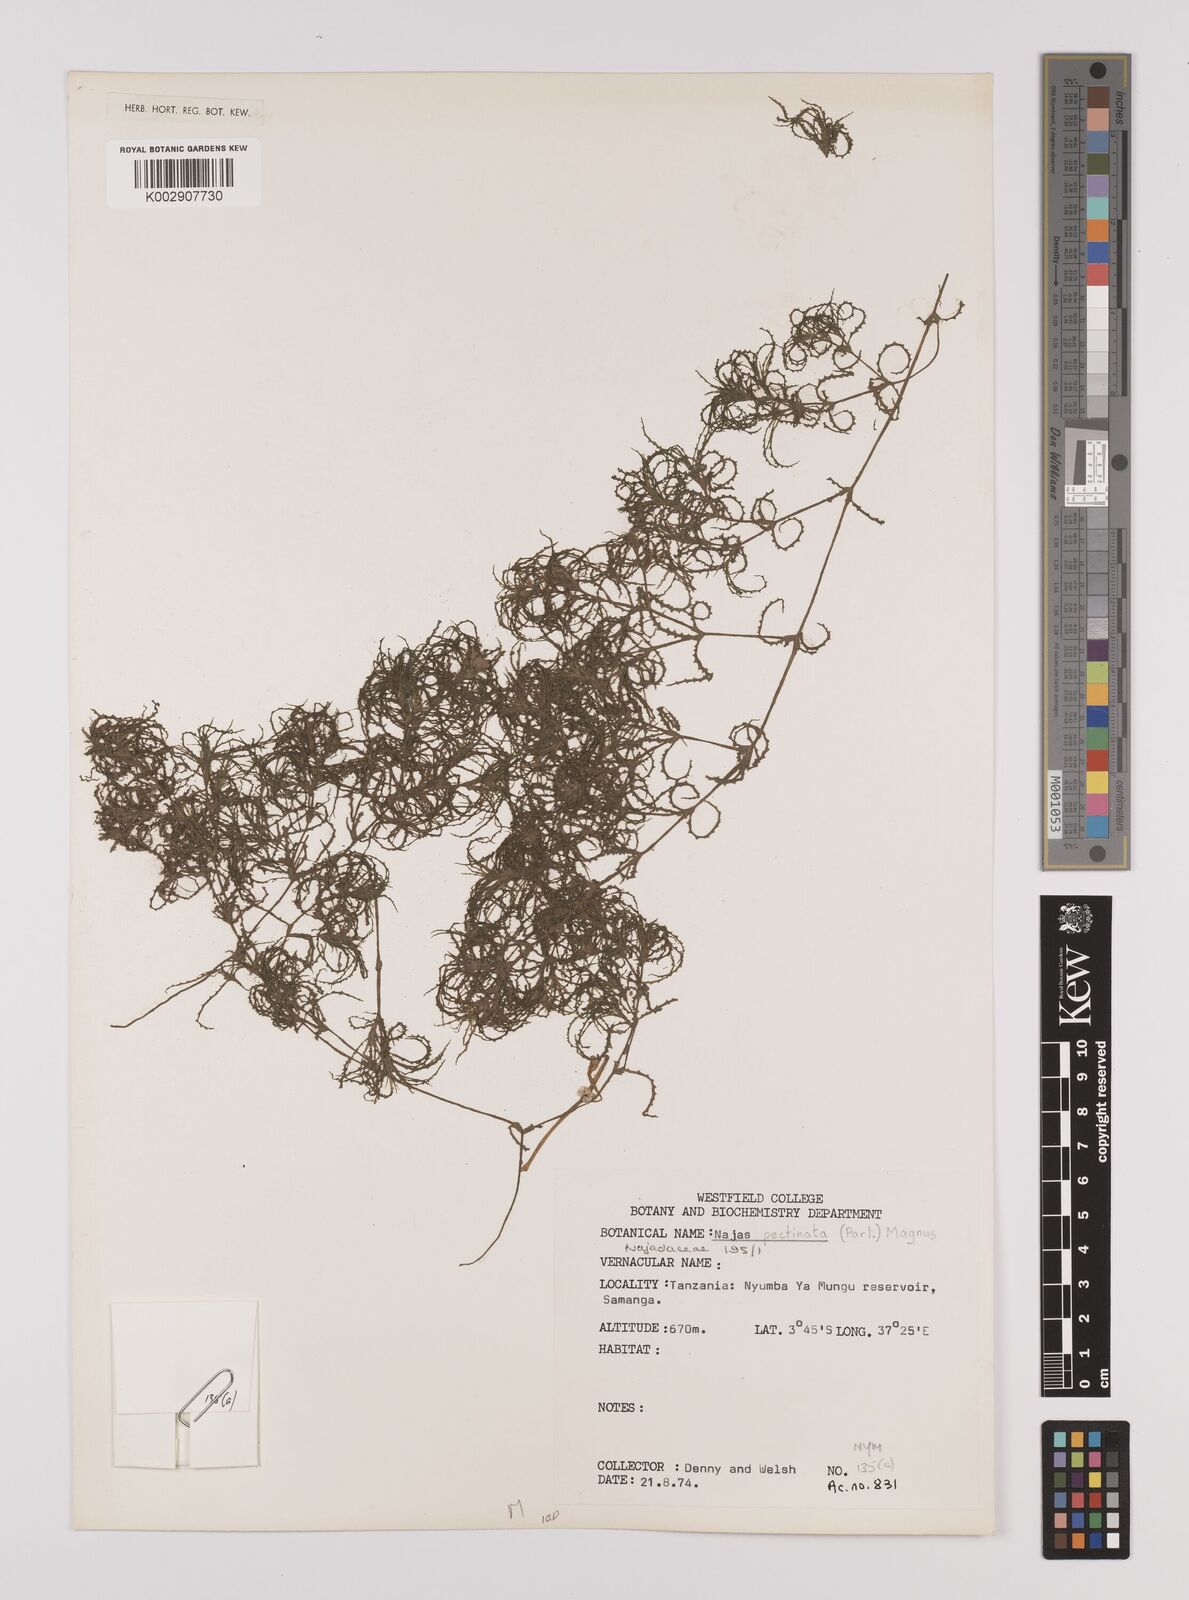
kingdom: Plantae
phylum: Tracheophyta
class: Liliopsida
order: Alismatales
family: Hydrocharitaceae
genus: Najas
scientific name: Najas horrida
